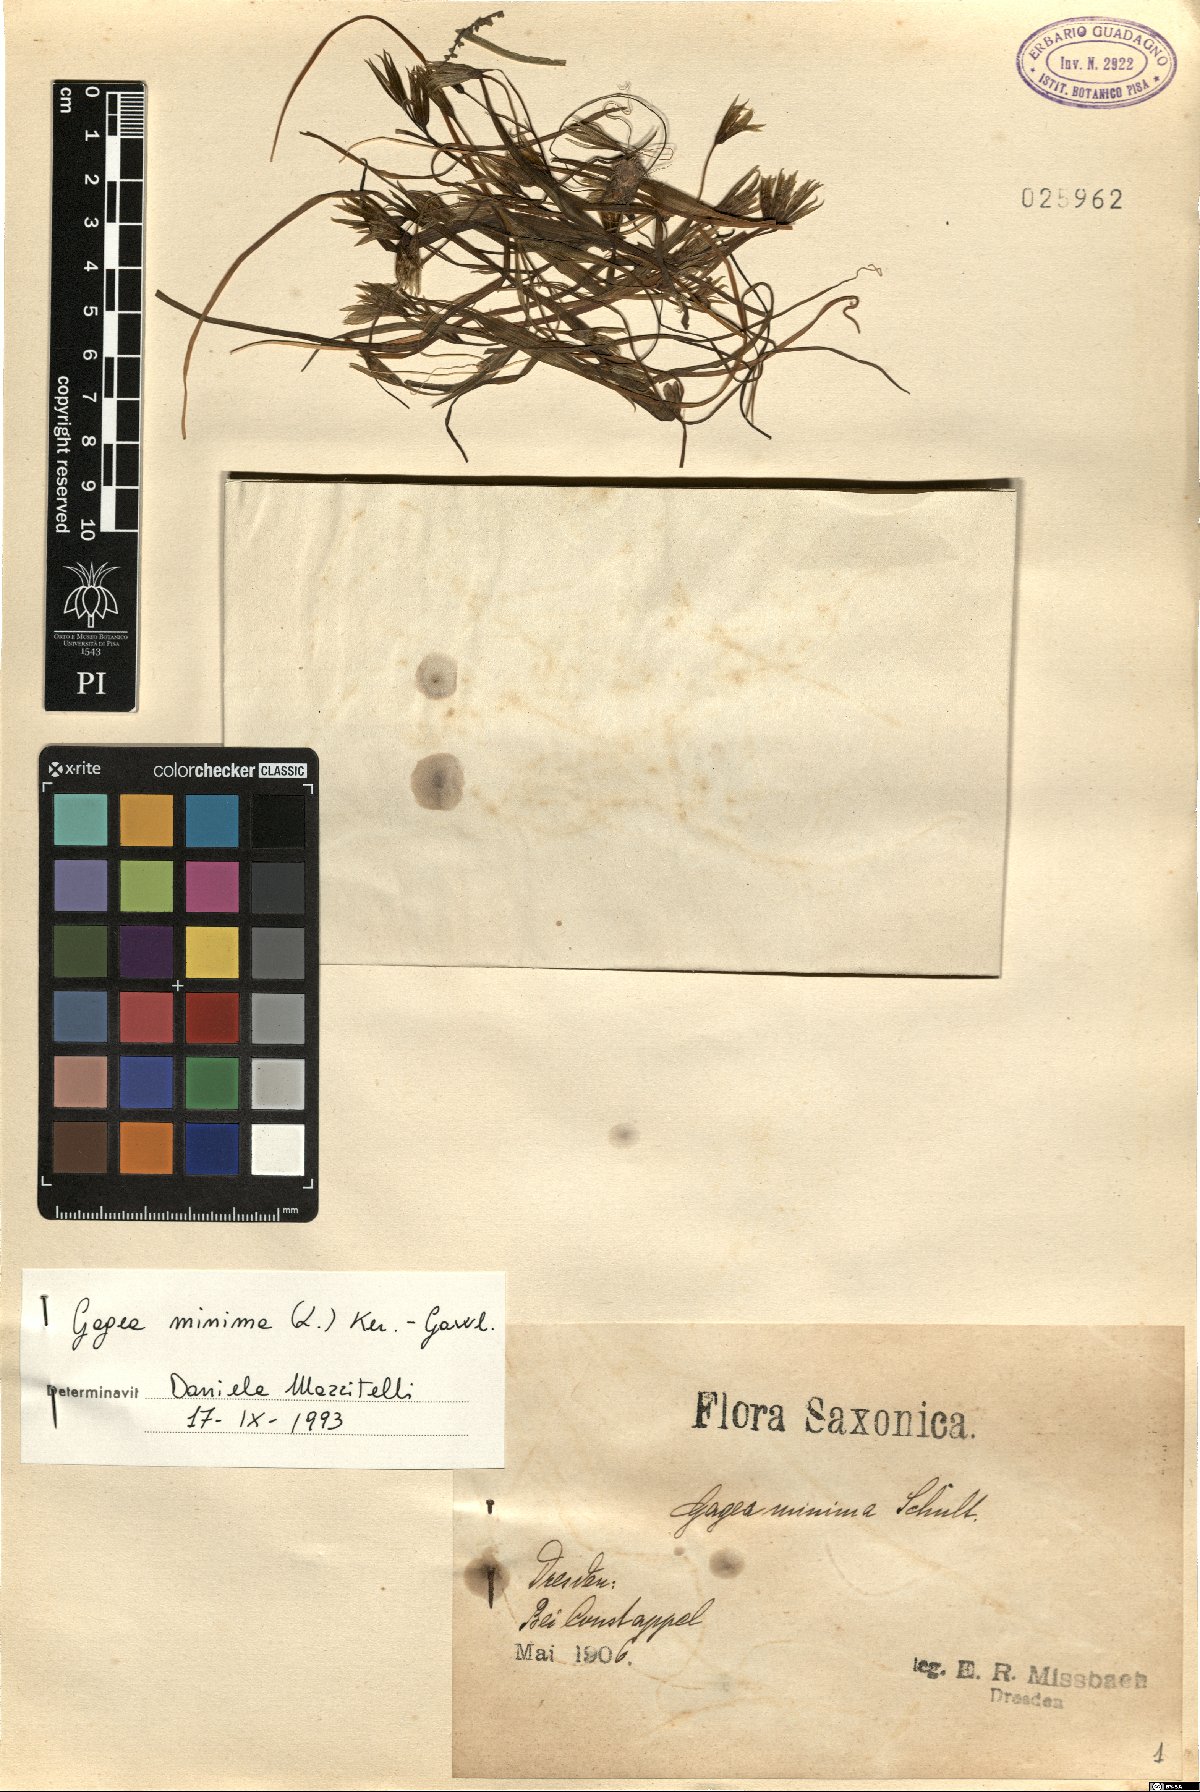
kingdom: Plantae
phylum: Tracheophyta
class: Liliopsida
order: Liliales
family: Liliaceae
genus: Gagea
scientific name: Gagea minima
